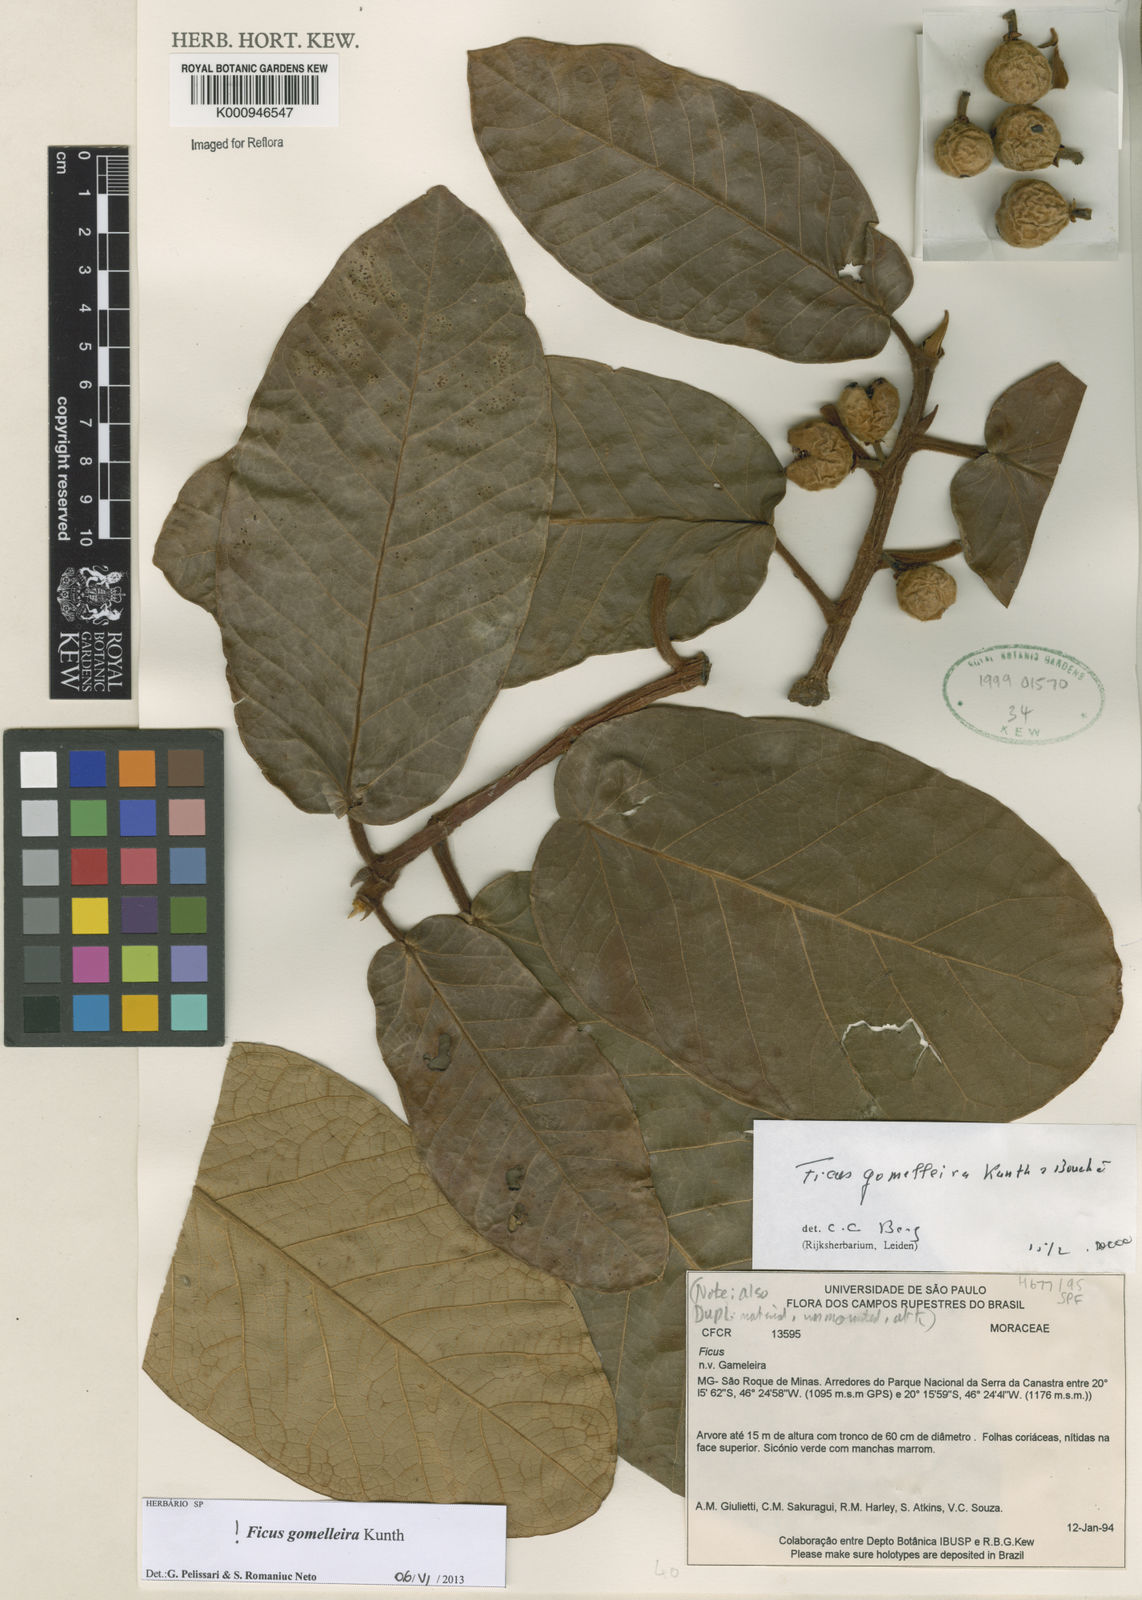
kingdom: Plantae
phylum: Tracheophyta
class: Magnoliopsida
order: Rosales
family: Moraceae
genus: Ficus
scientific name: Ficus gomelleira
